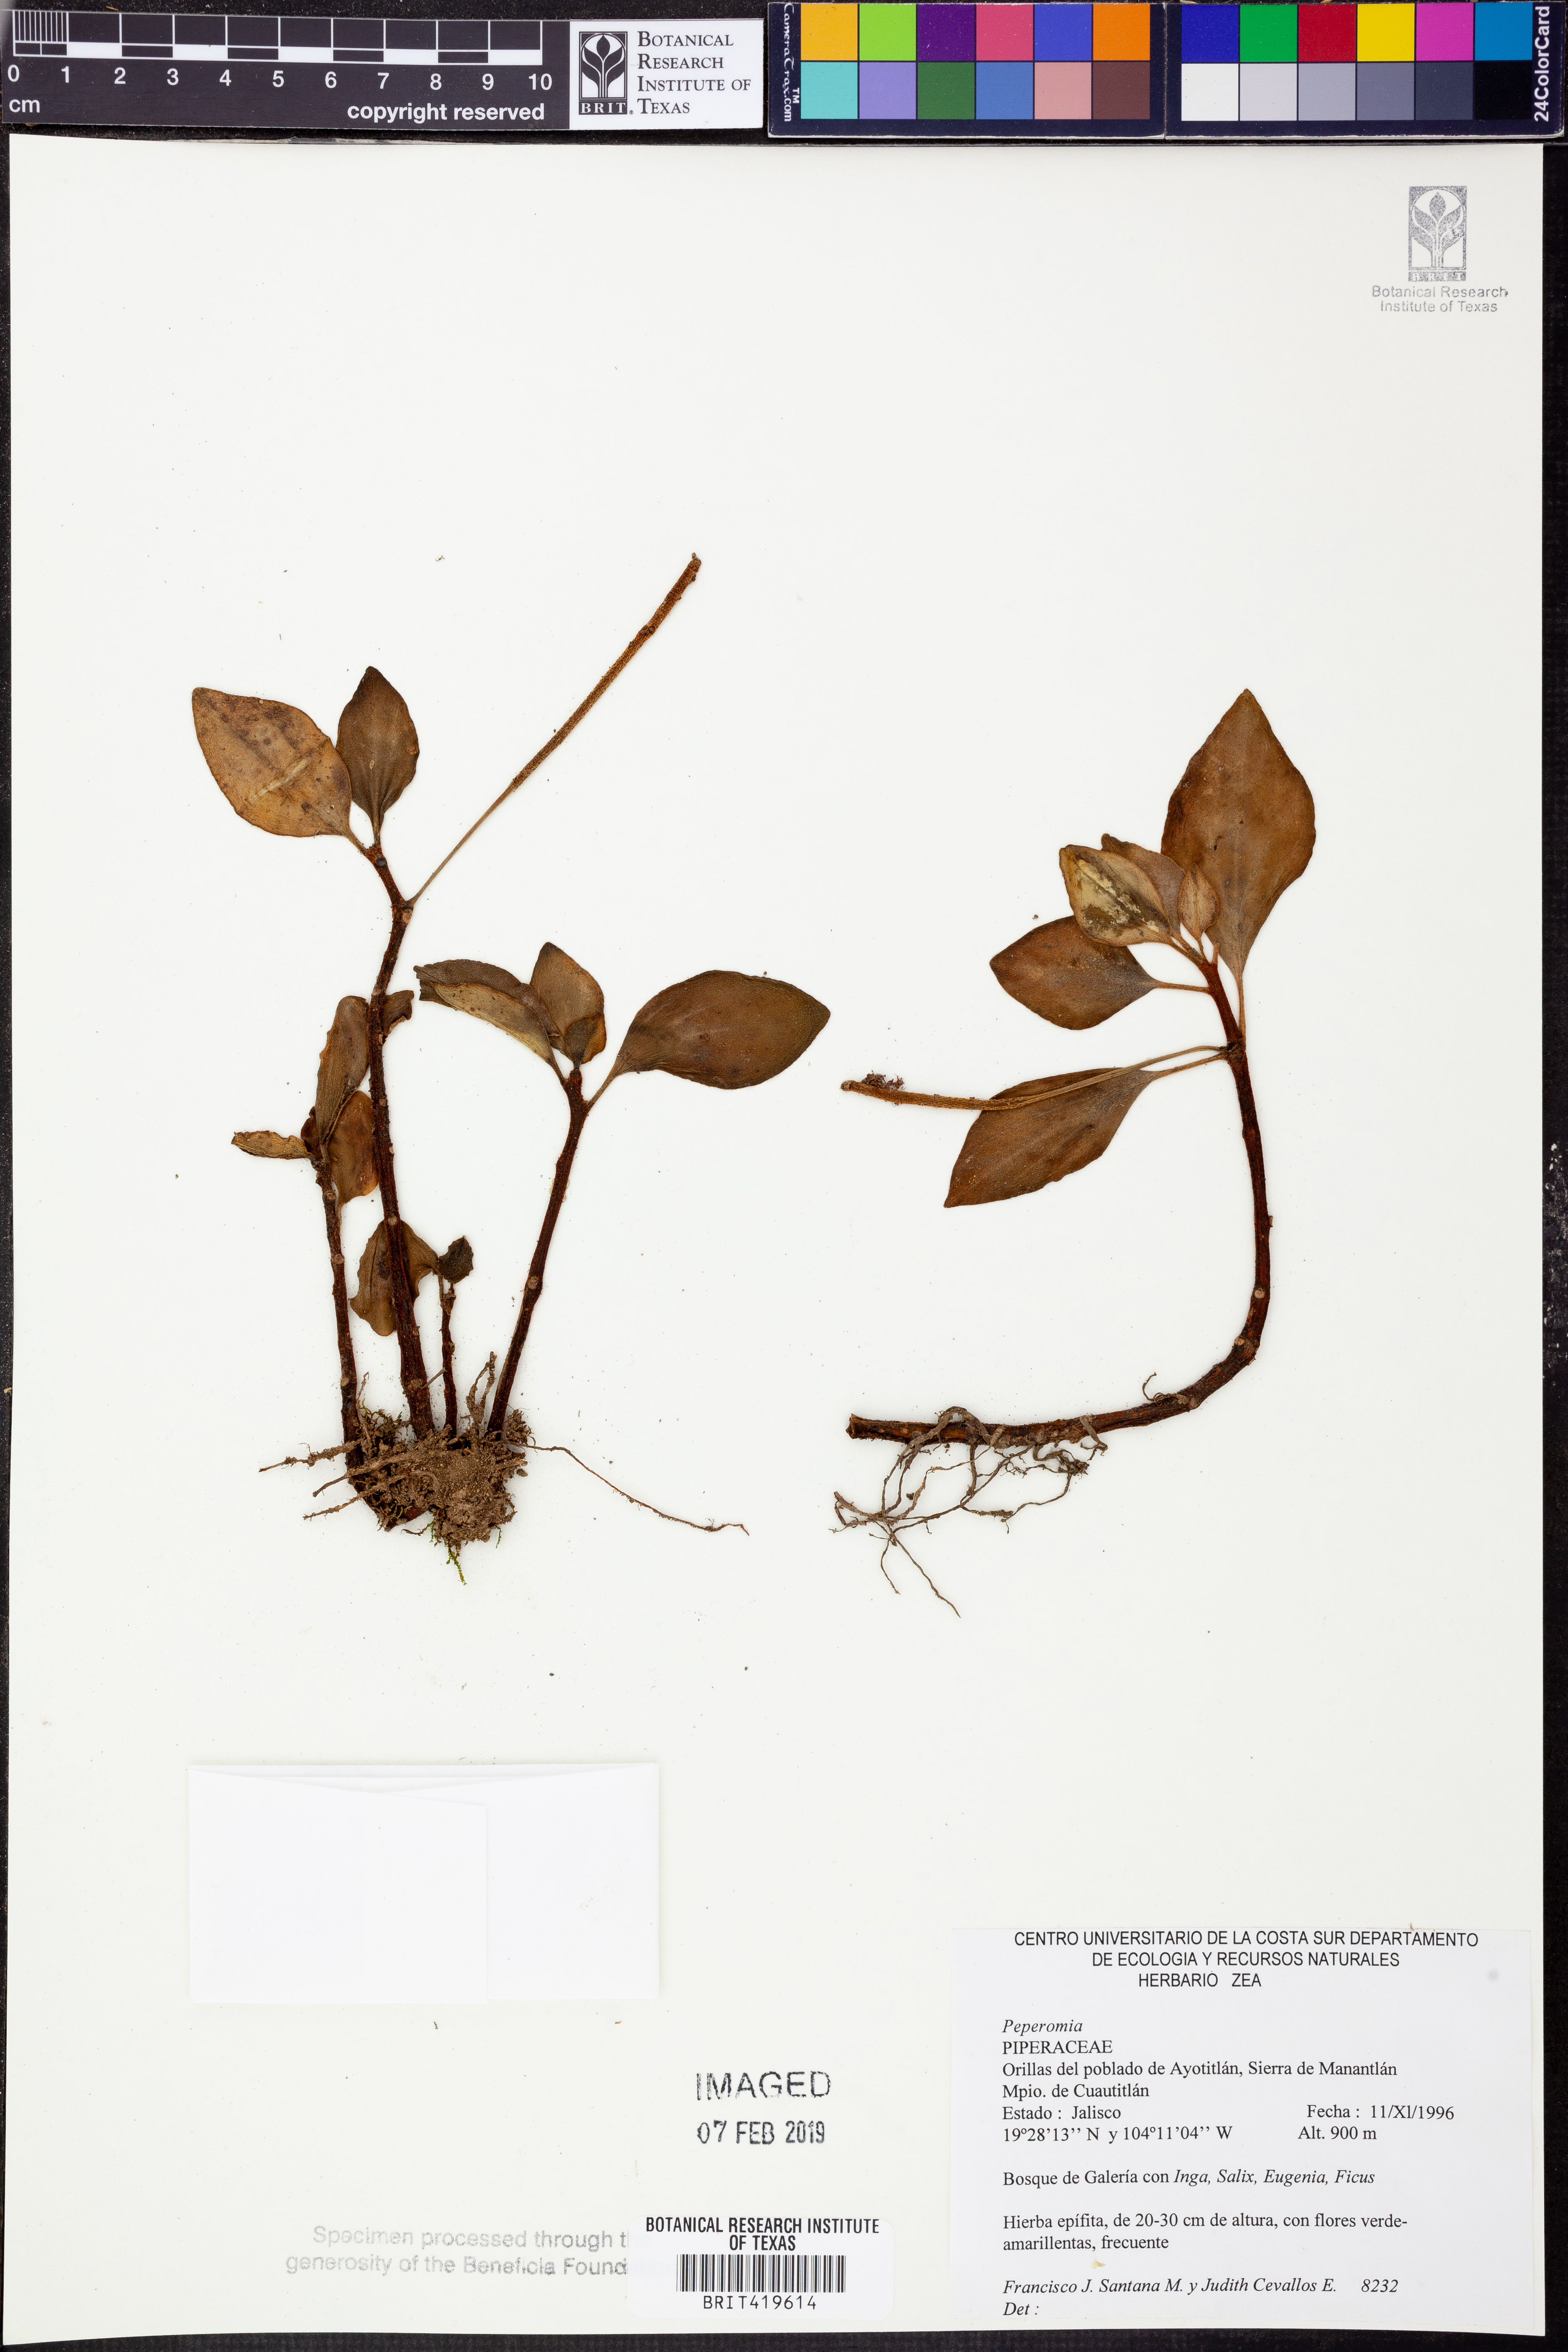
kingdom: Plantae
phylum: Tracheophyta
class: Magnoliopsida
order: Piperales
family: Piperaceae
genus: Peperomia
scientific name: Peperomia
